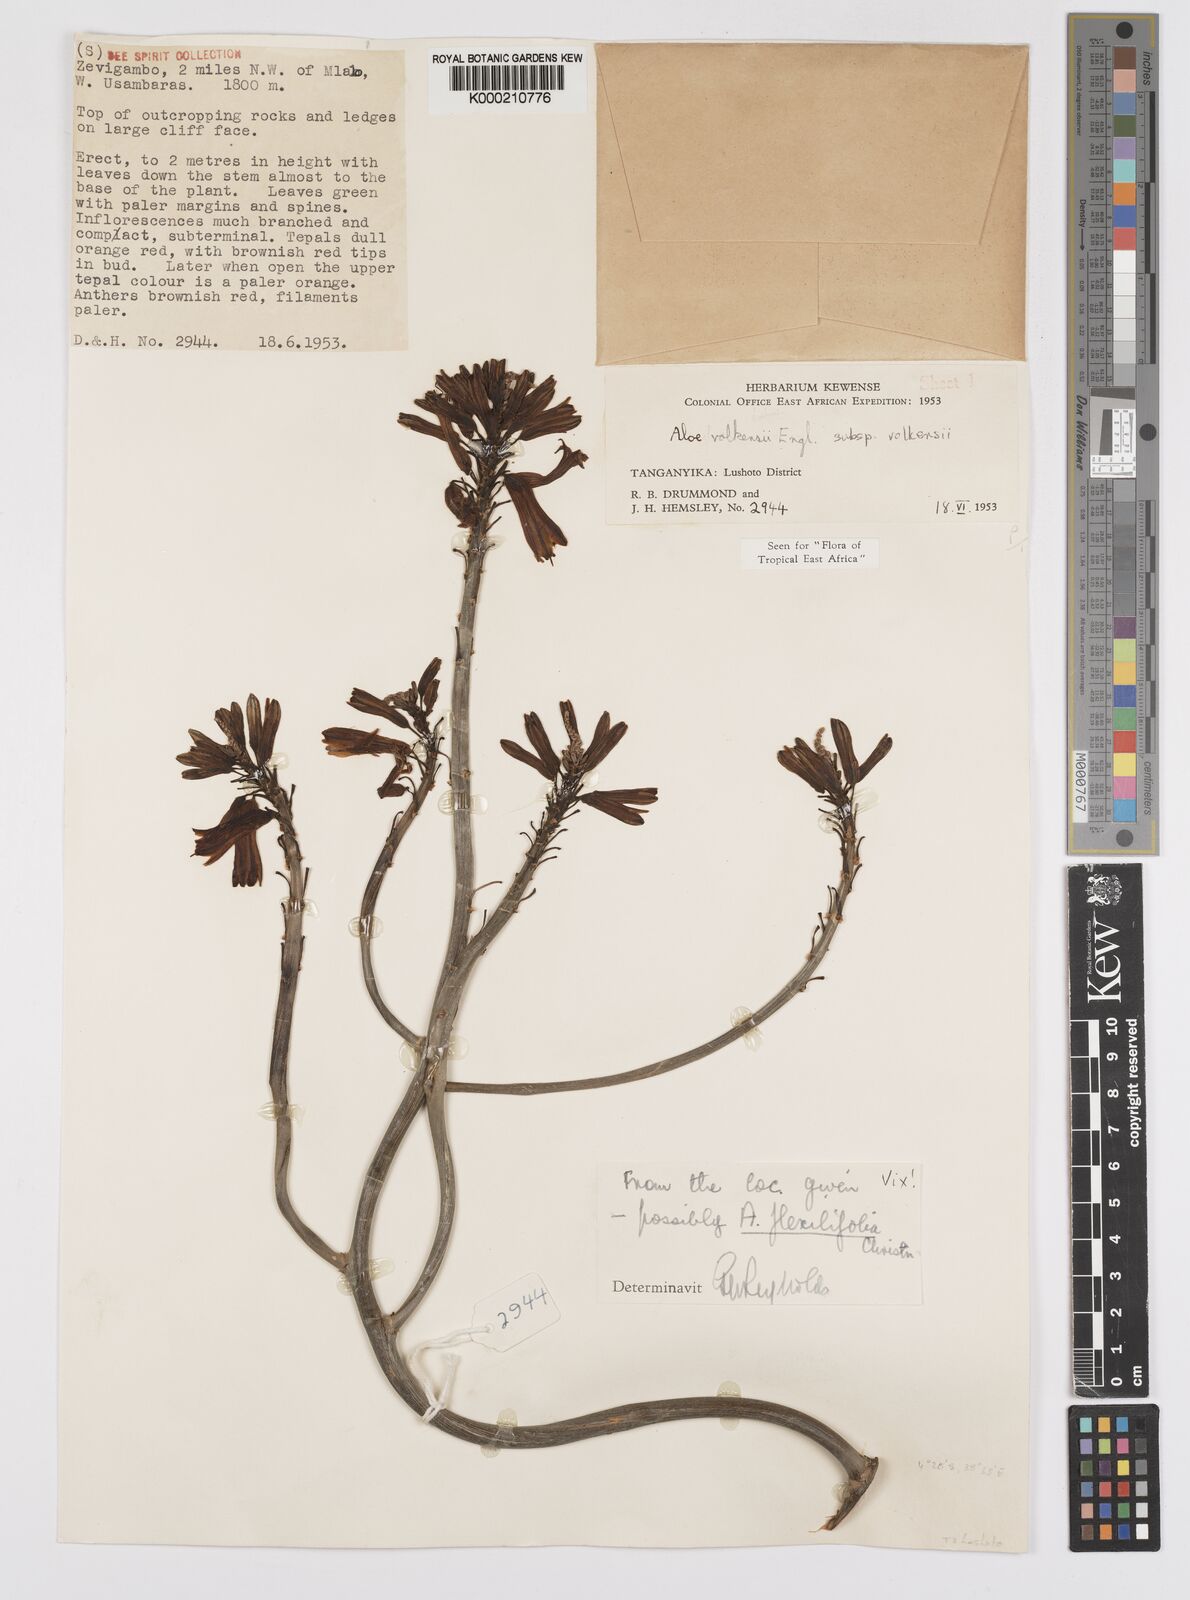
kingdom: Plantae
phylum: Tracheophyta
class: Liliopsida
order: Asparagales
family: Asphodelaceae
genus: Aloe
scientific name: Aloe volkensii
